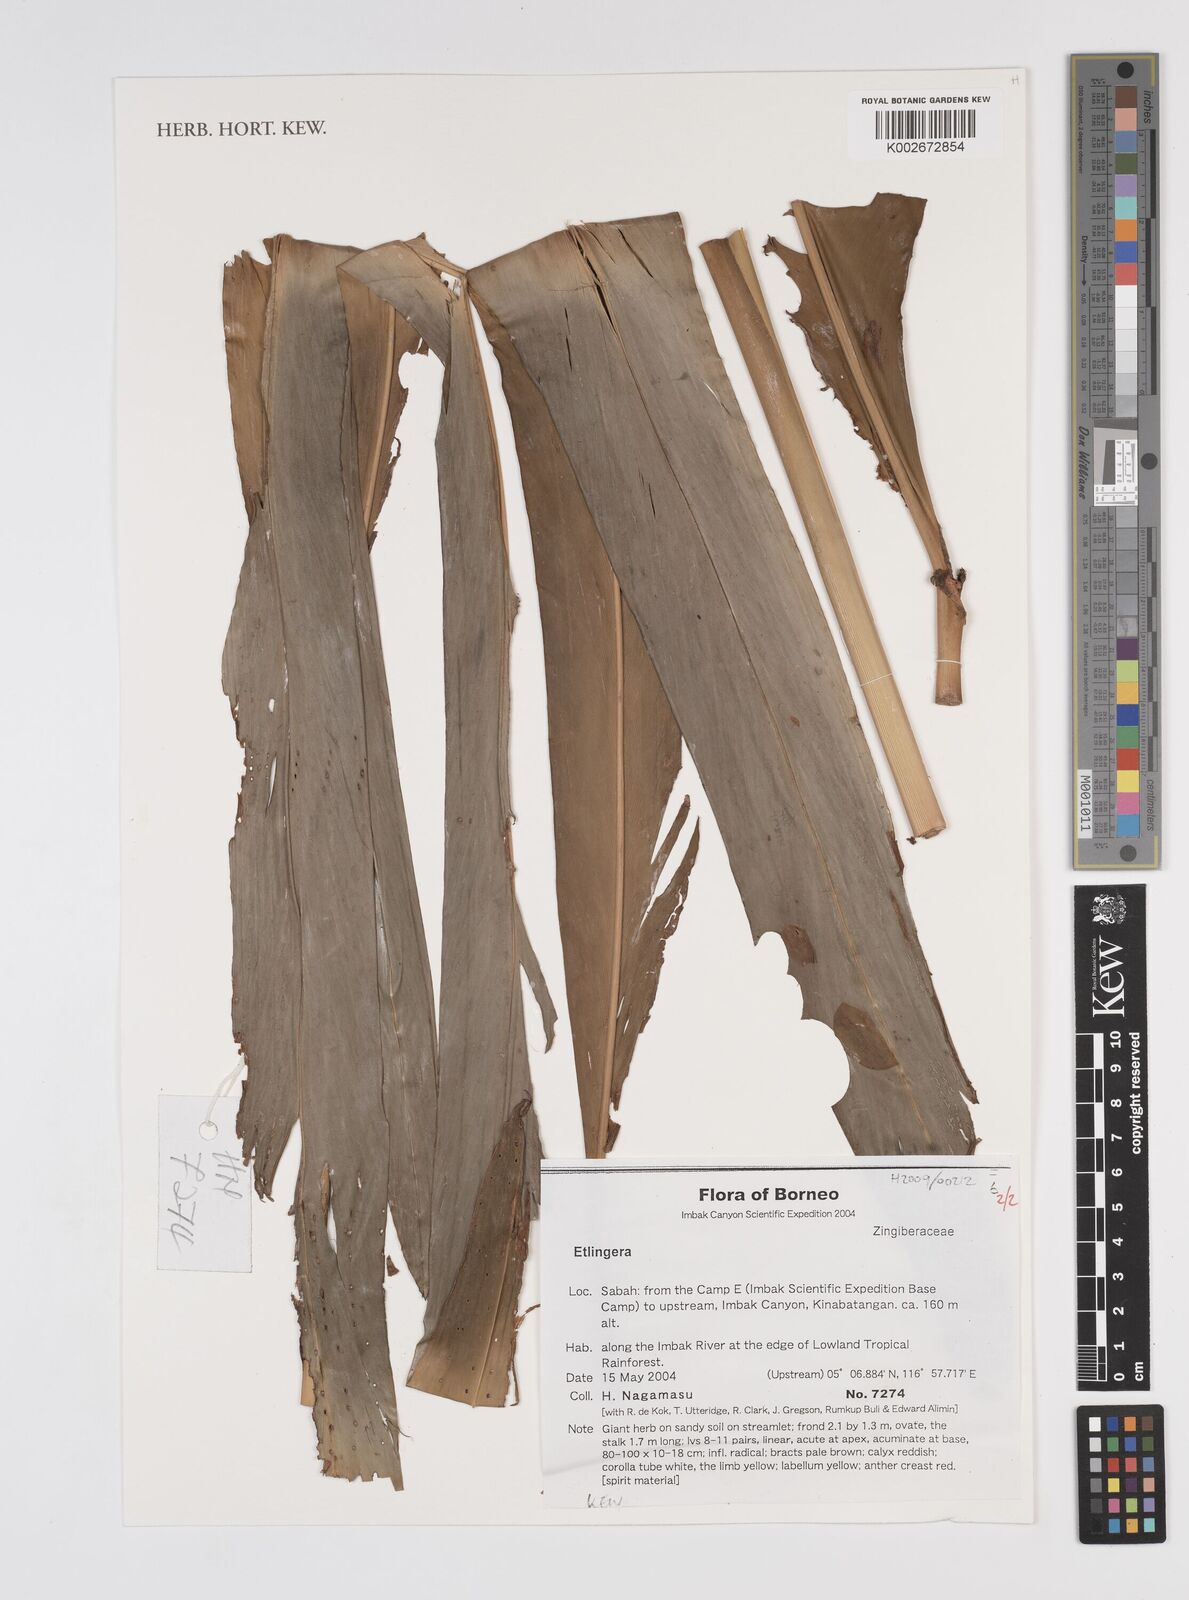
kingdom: Plantae
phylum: Tracheophyta
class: Liliopsida
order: Zingiberales
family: Zingiberaceae
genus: Etlingera
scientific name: Etlingera
